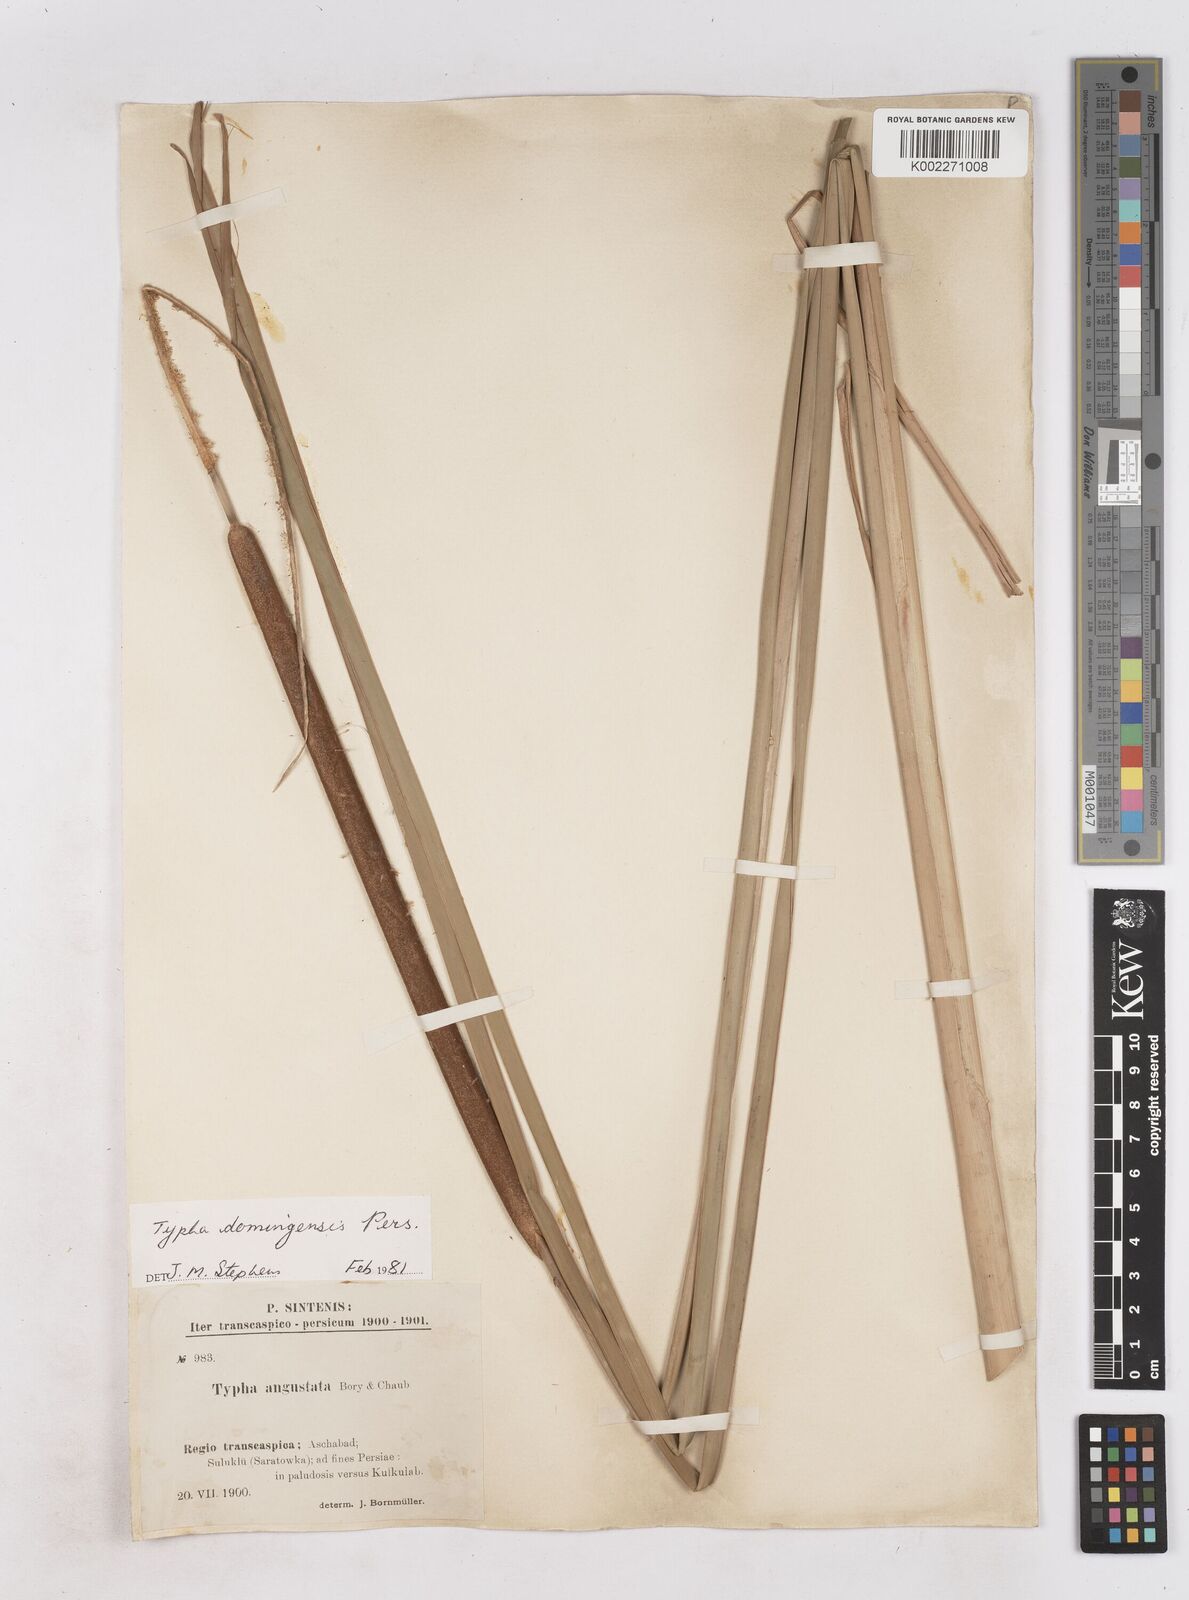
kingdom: Plantae
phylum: Tracheophyta
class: Liliopsida
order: Poales
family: Typhaceae
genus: Typha
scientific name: Typha domingensis
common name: Southern cattail
